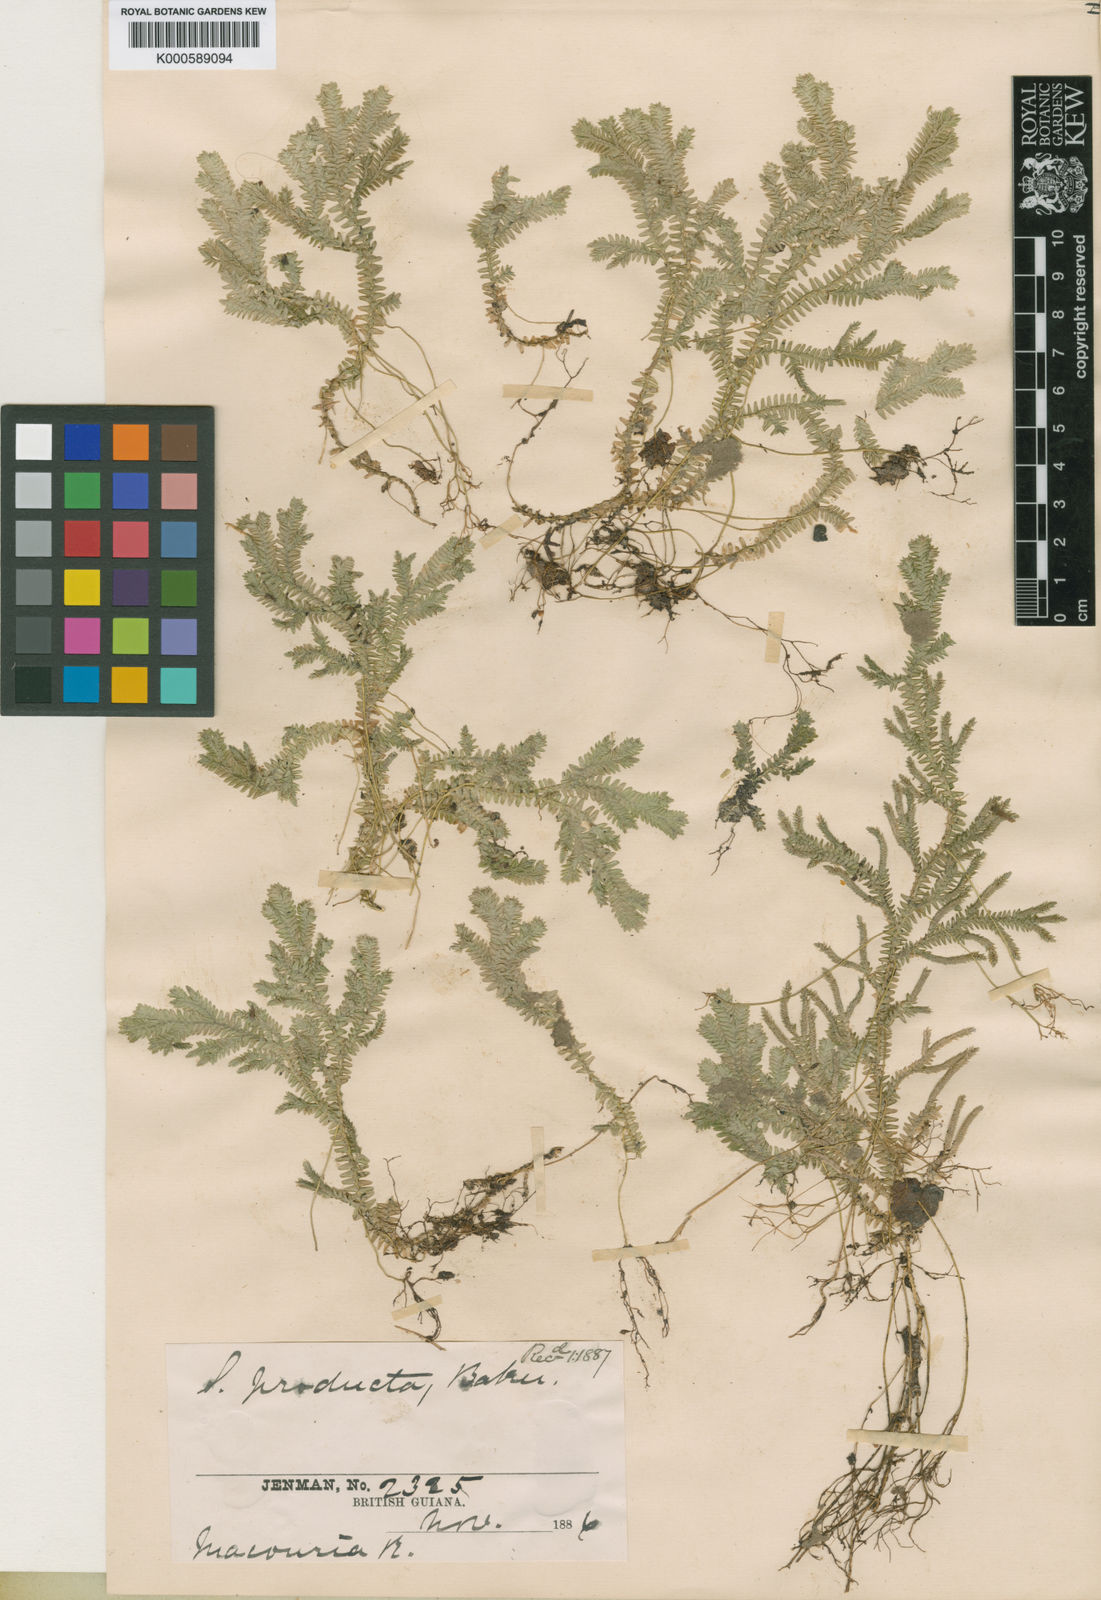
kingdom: Plantae
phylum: Tracheophyta
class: Lycopodiopsida
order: Selaginellales
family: Selaginellaceae
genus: Selaginella
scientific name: Selaginella revoluta
